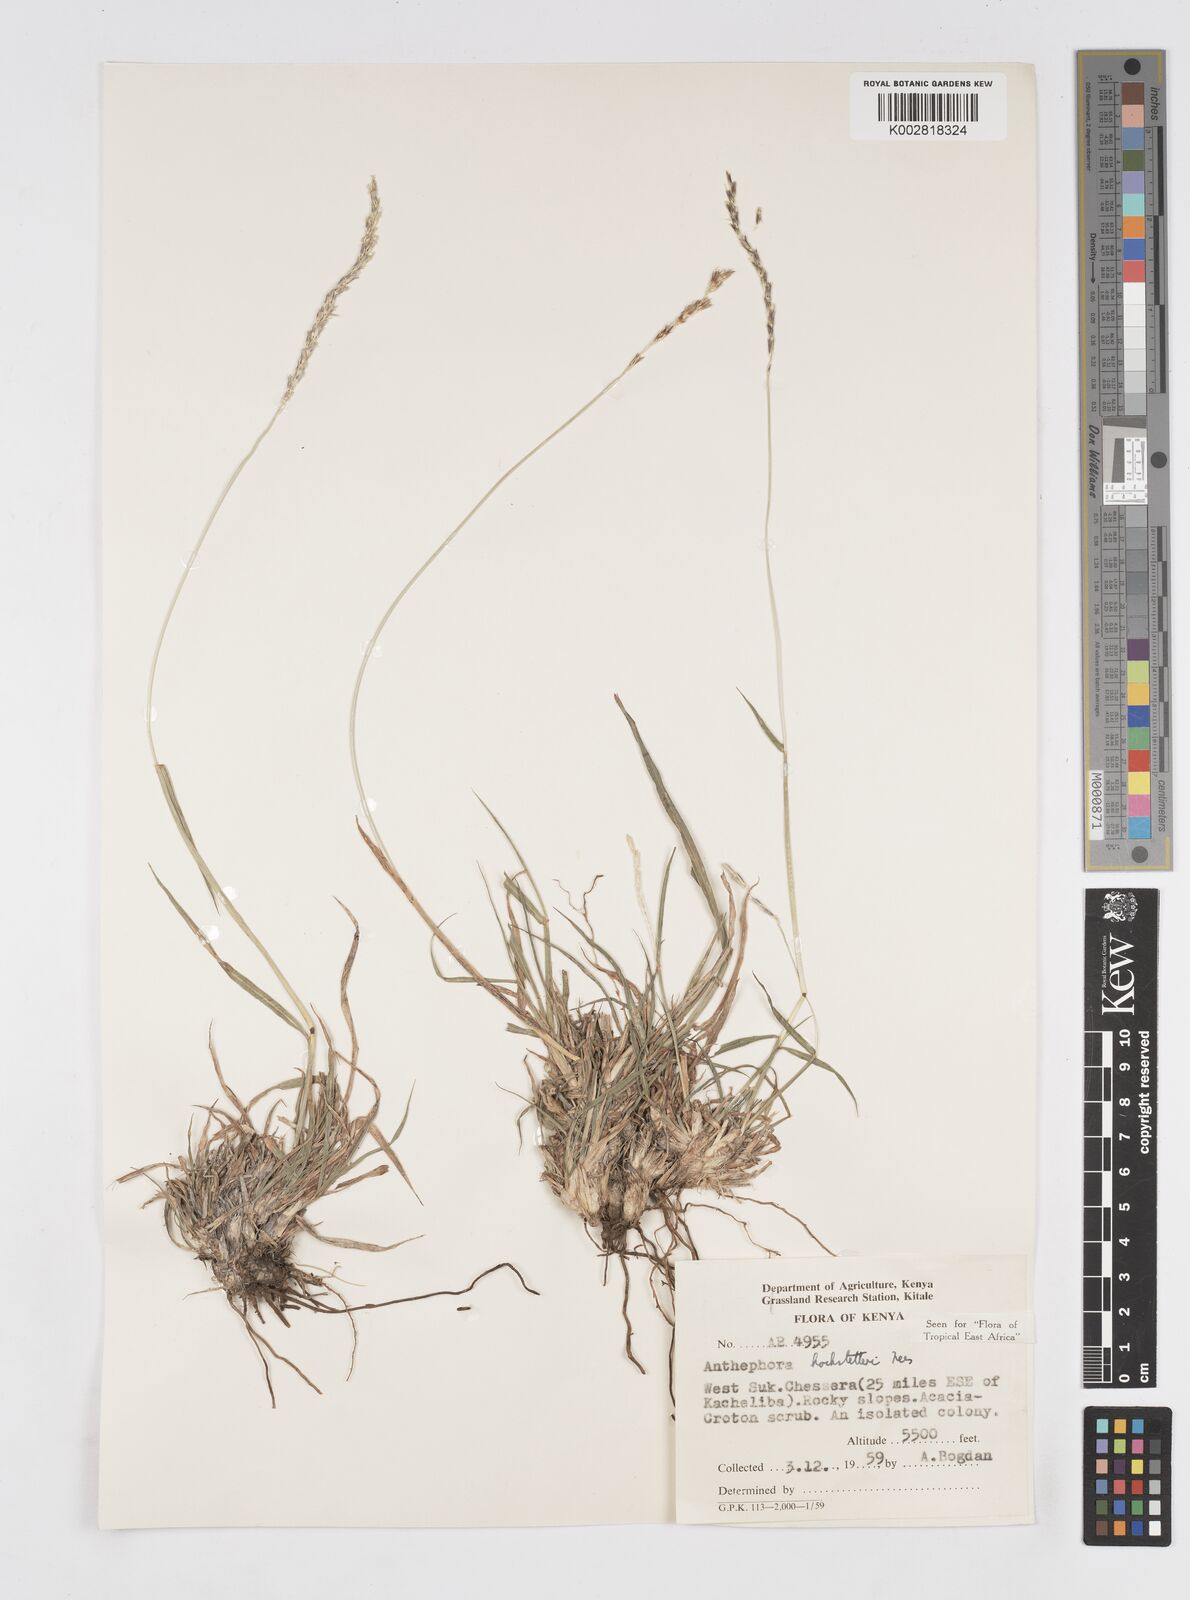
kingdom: Plantae
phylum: Tracheophyta
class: Liliopsida
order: Poales
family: Poaceae
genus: Anthephora
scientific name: Anthephora pubescens
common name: Wool grass
